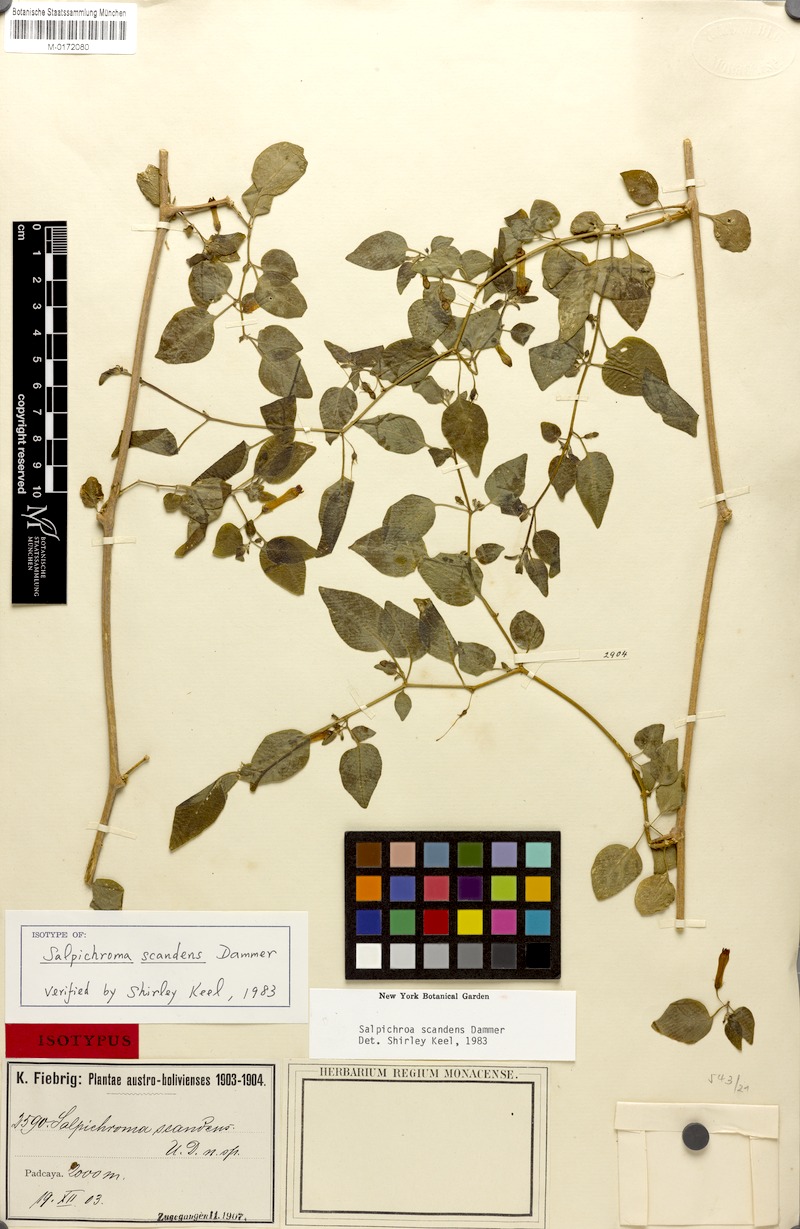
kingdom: Plantae
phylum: Tracheophyta
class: Magnoliopsida
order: Solanales
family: Solanaceae
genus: Salpichroa
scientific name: Salpichroa scandens
